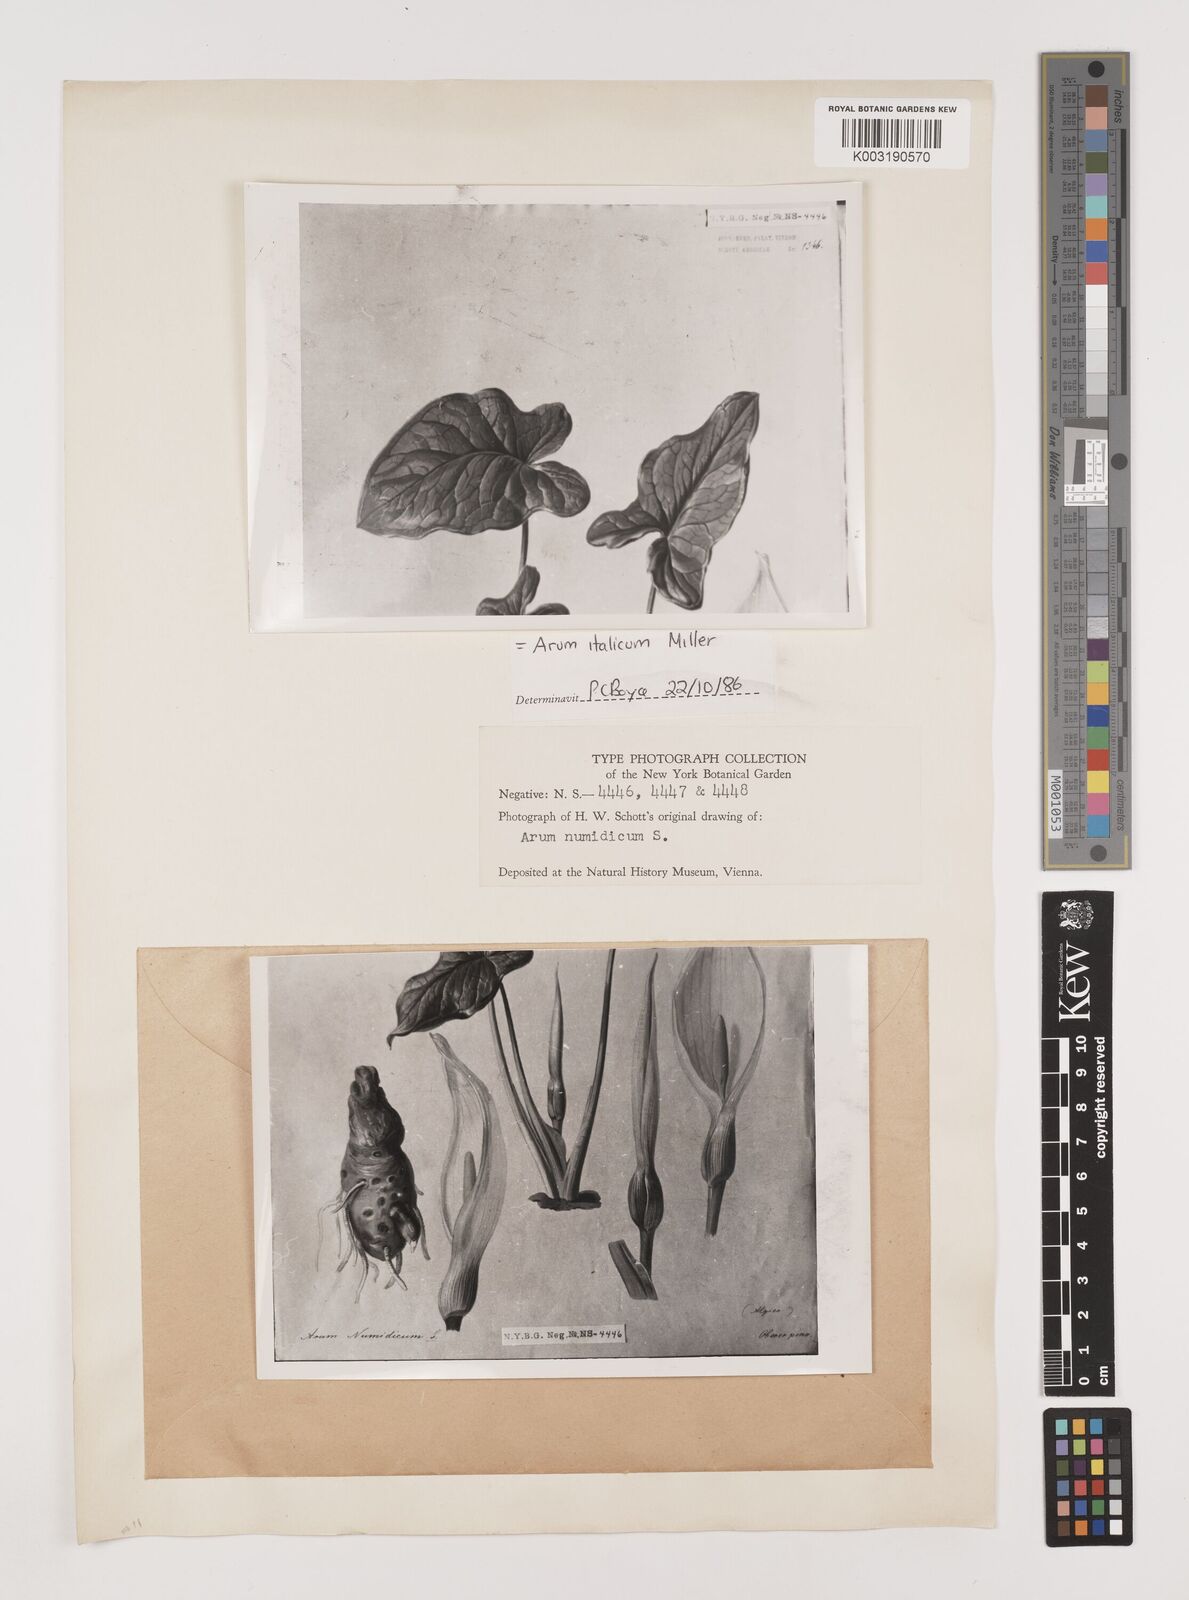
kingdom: Plantae
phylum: Tracheophyta
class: Liliopsida
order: Alismatales
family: Araceae
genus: Arum
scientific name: Arum italicum
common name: Italian lords-and-ladies
